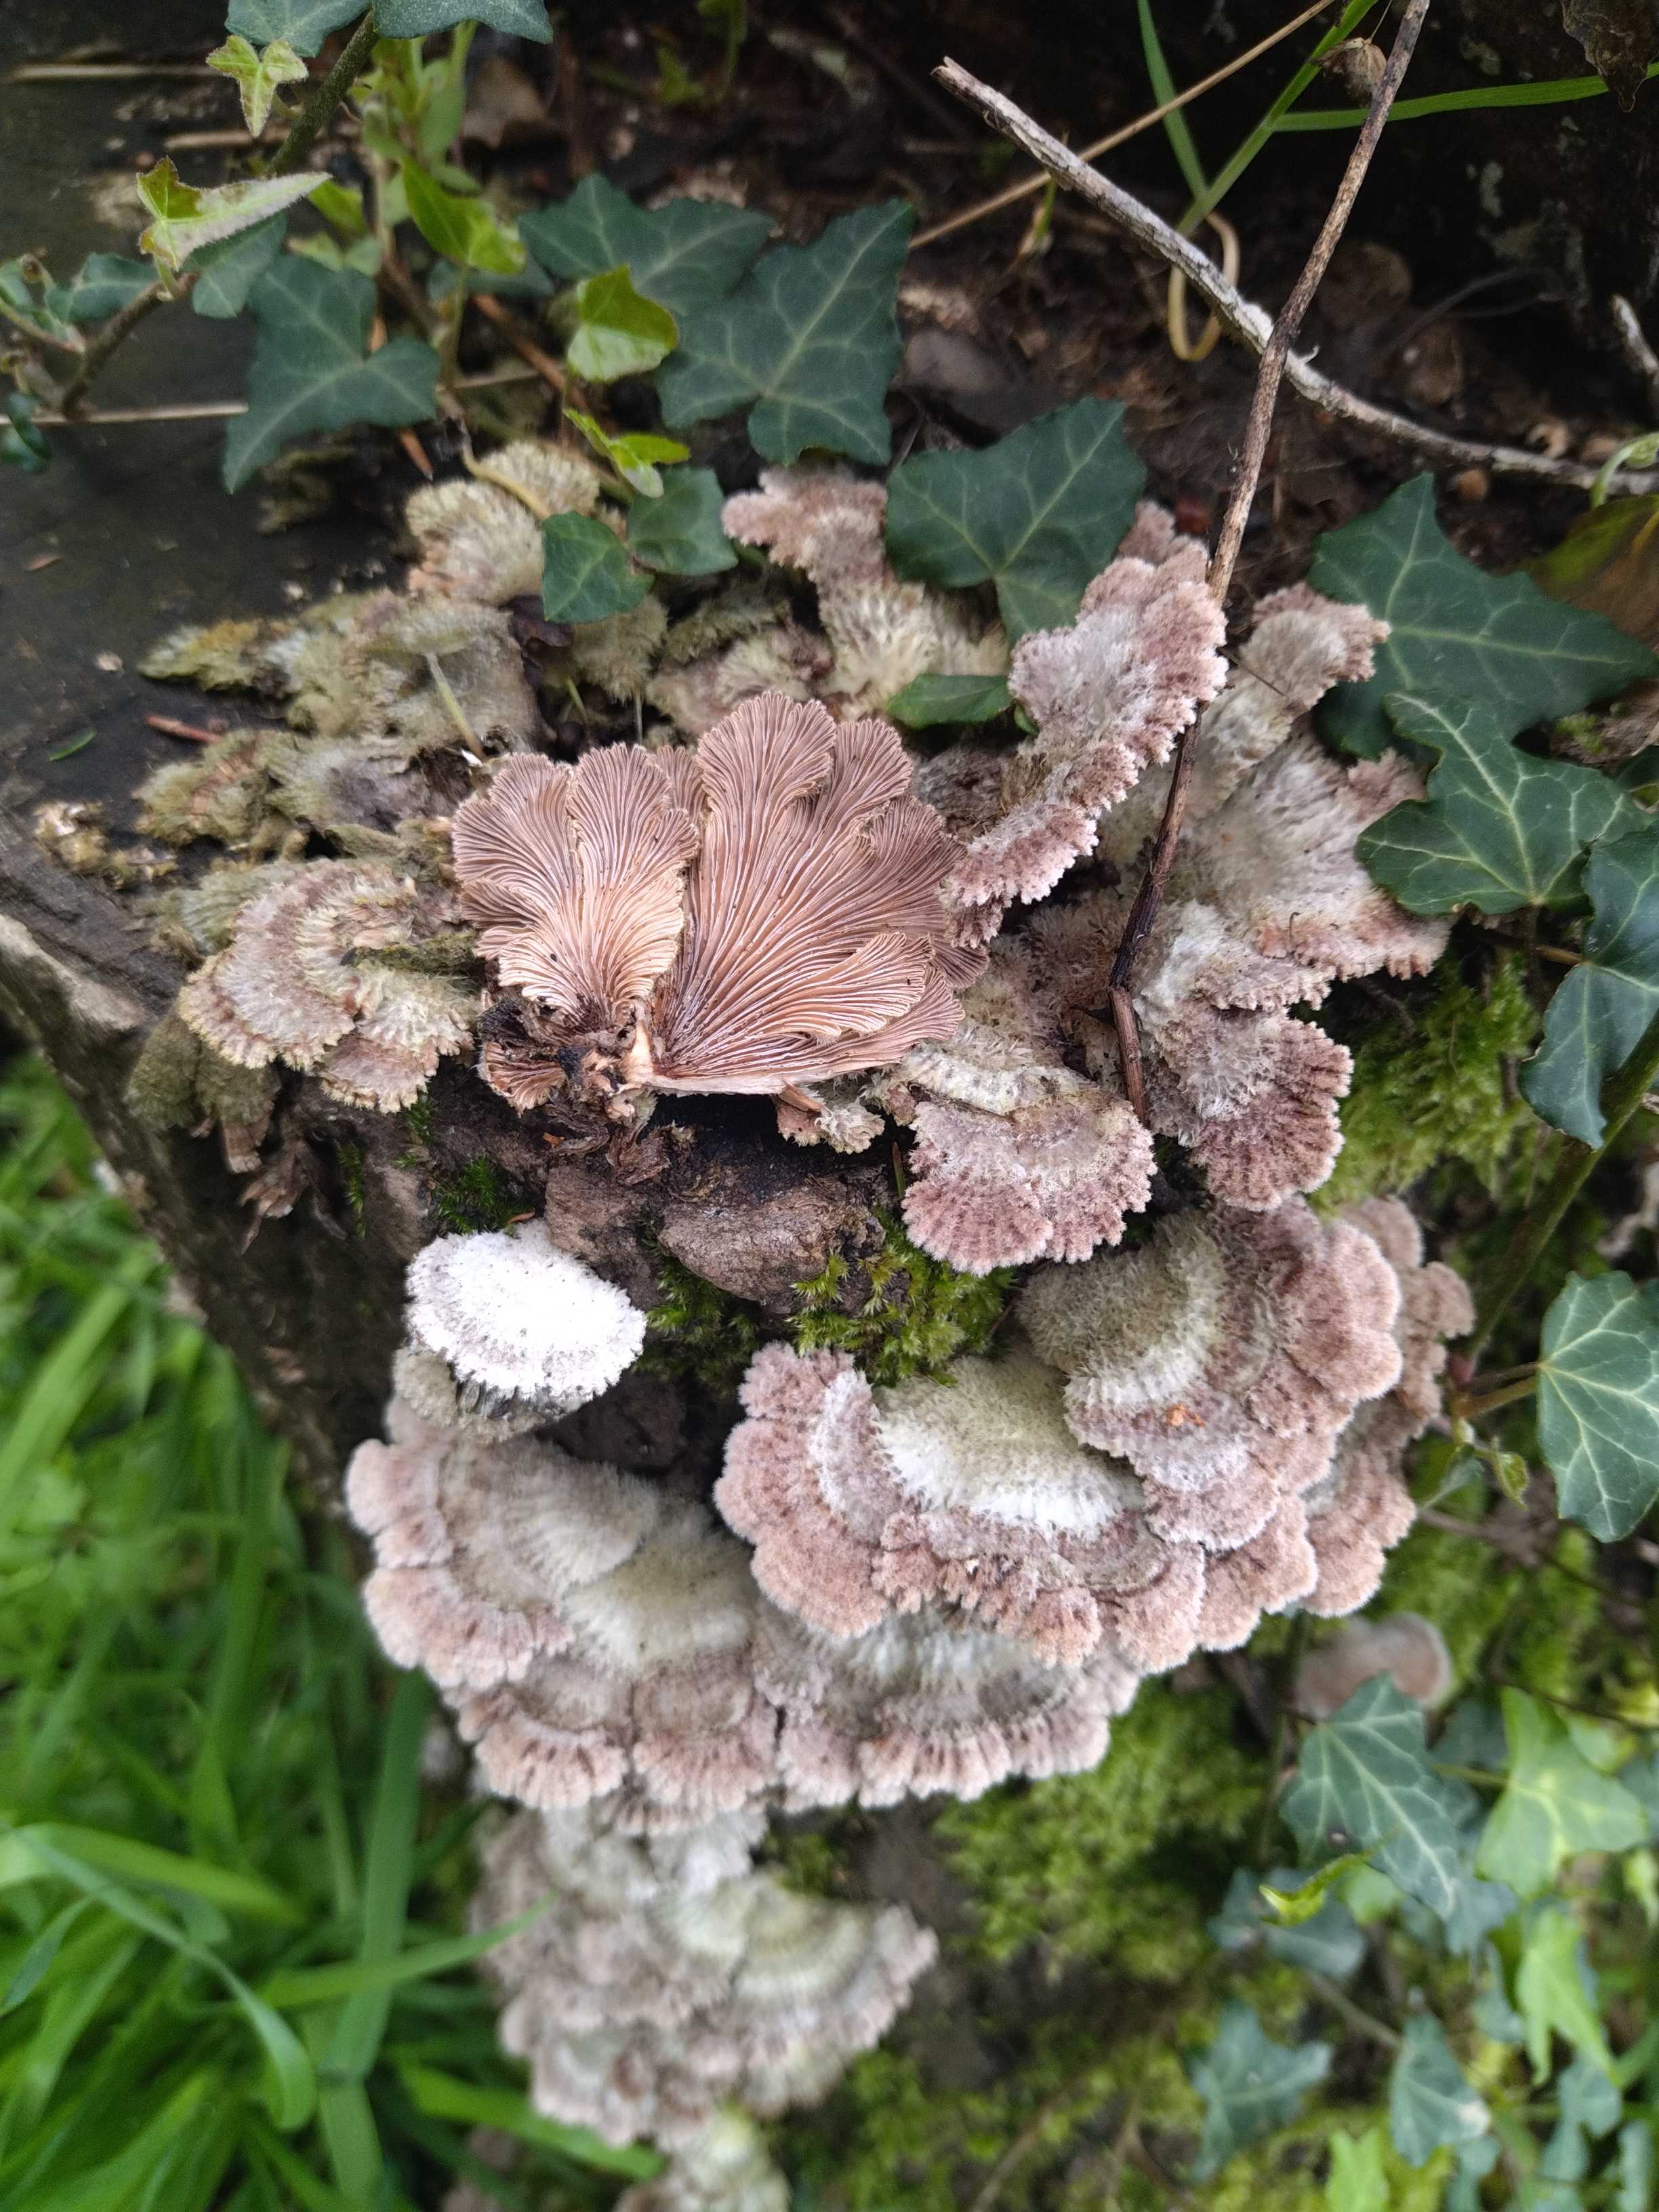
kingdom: Fungi
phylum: Basidiomycota
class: Agaricomycetes
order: Agaricales
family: Schizophyllaceae
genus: Schizophyllum
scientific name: Schizophyllum commune
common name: kløvblad
